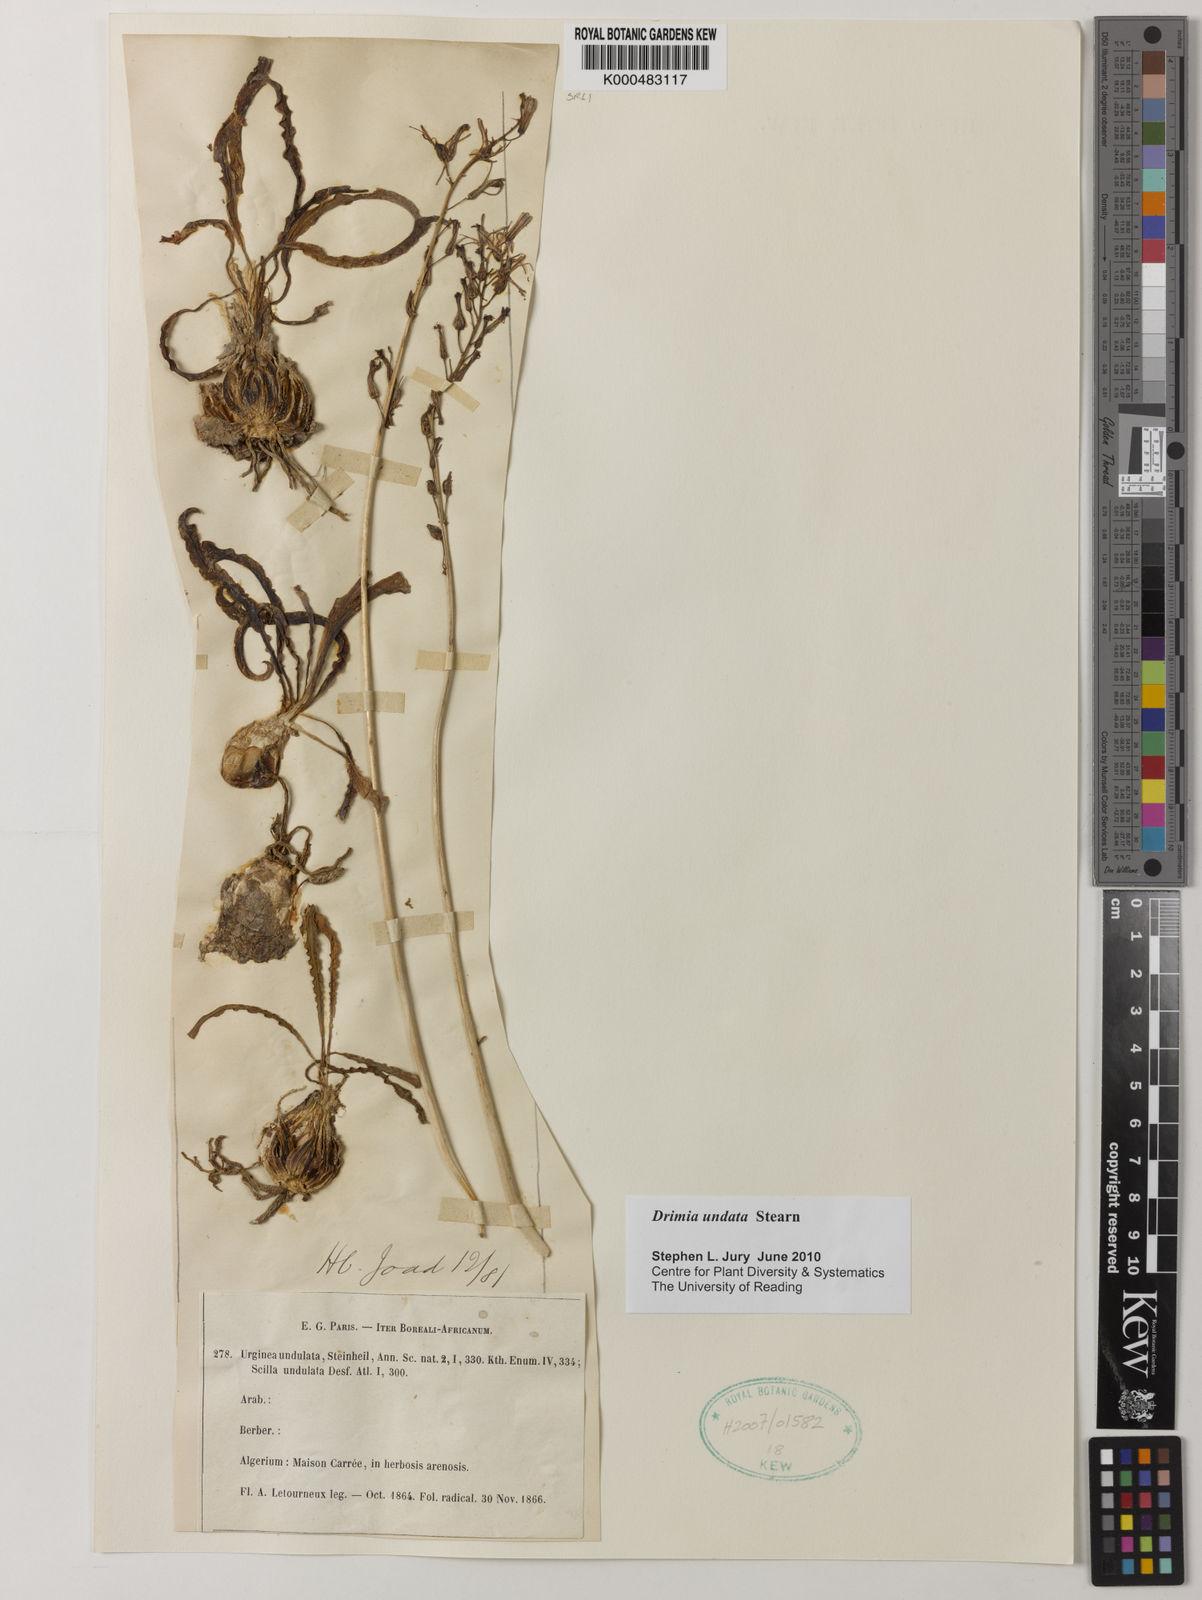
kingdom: Plantae
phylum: Tracheophyta
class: Liliopsida
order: Asparagales
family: Asparagaceae
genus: Drimia
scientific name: Drimia purpurascens
